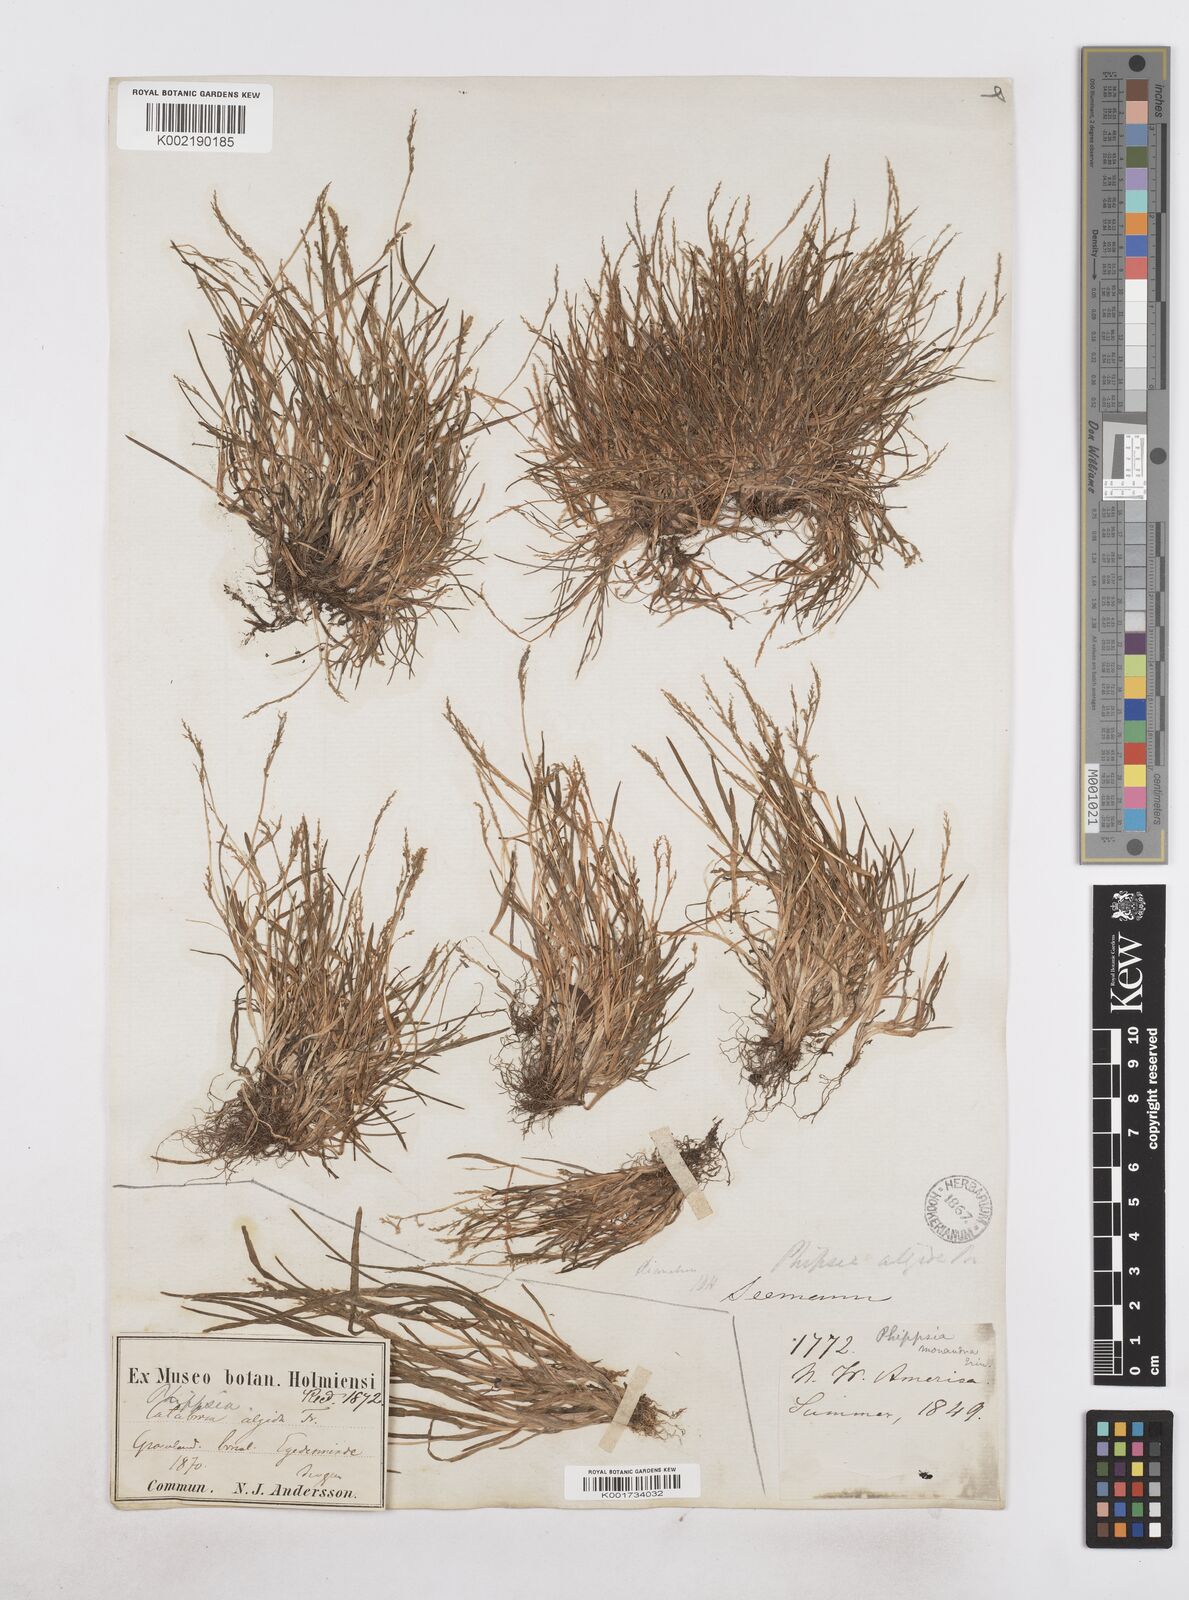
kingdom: Plantae
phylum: Tracheophyta
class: Liliopsida
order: Poales
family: Poaceae
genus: Phippsia
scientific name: Phippsia algida
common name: Ice grass
